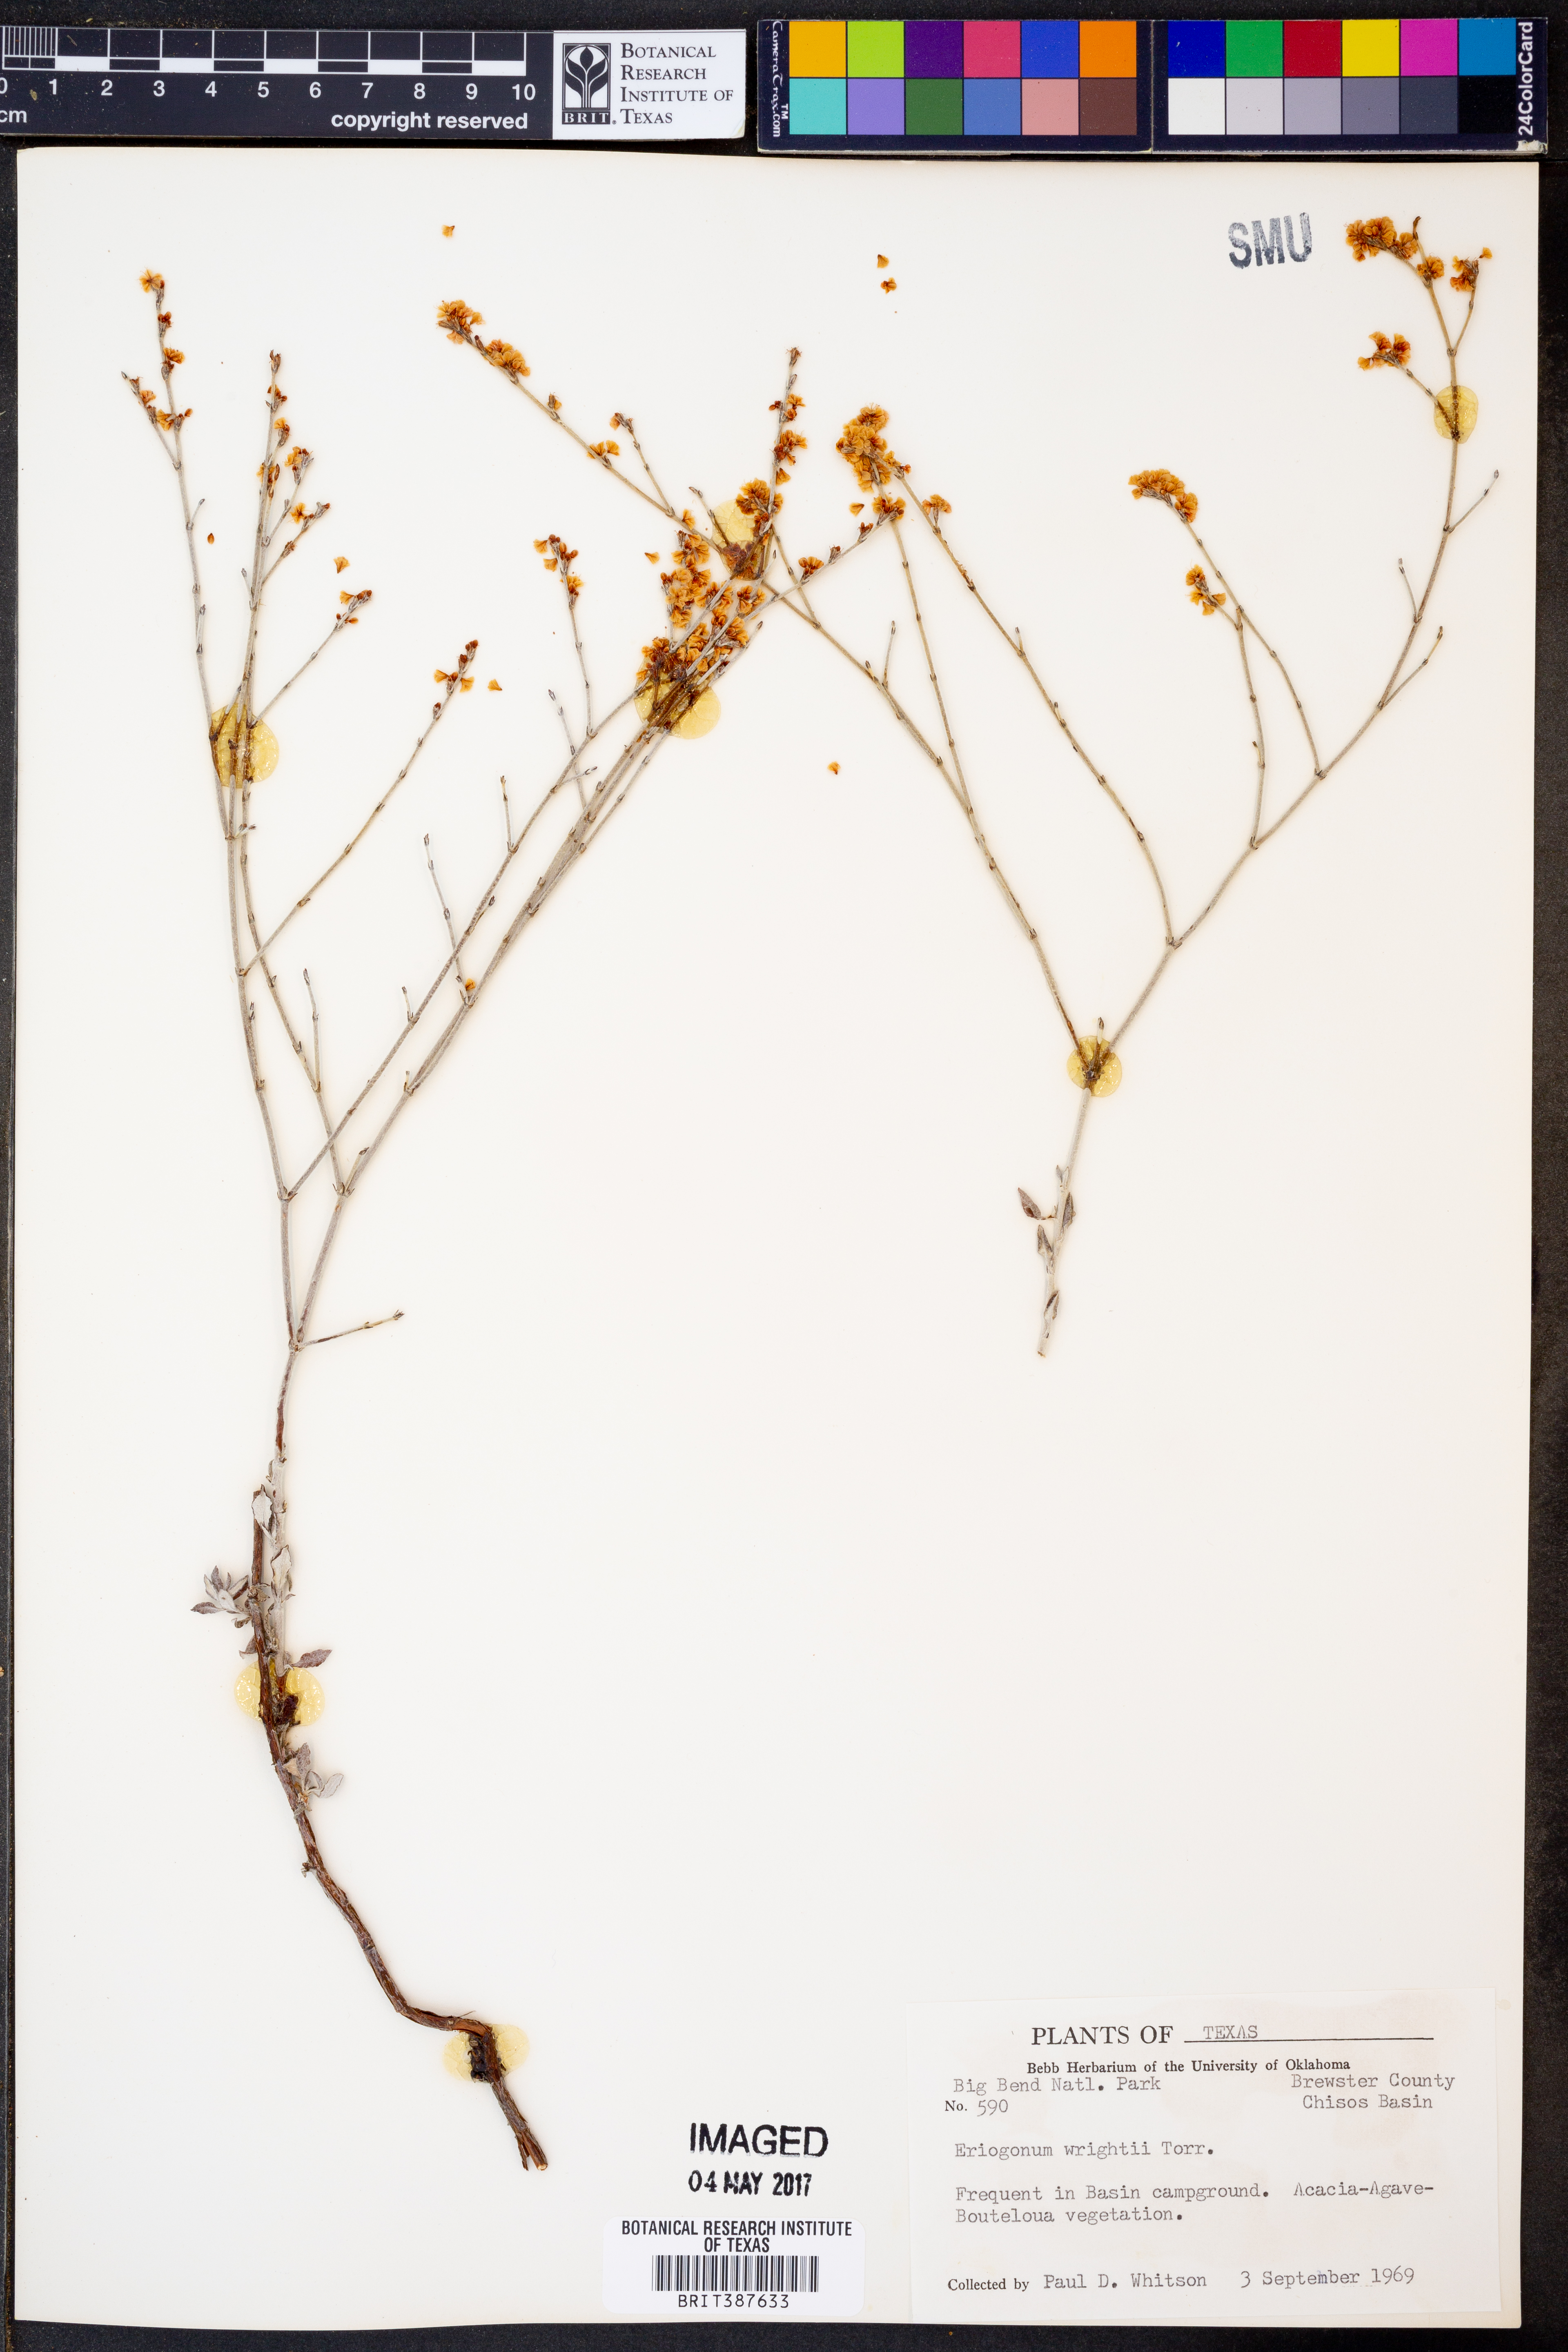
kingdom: Plantae
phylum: Tracheophyta
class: Magnoliopsida
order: Caryophyllales
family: Polygonaceae
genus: Eriogonum
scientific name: Eriogonum wrightii
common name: Bastard-sage
